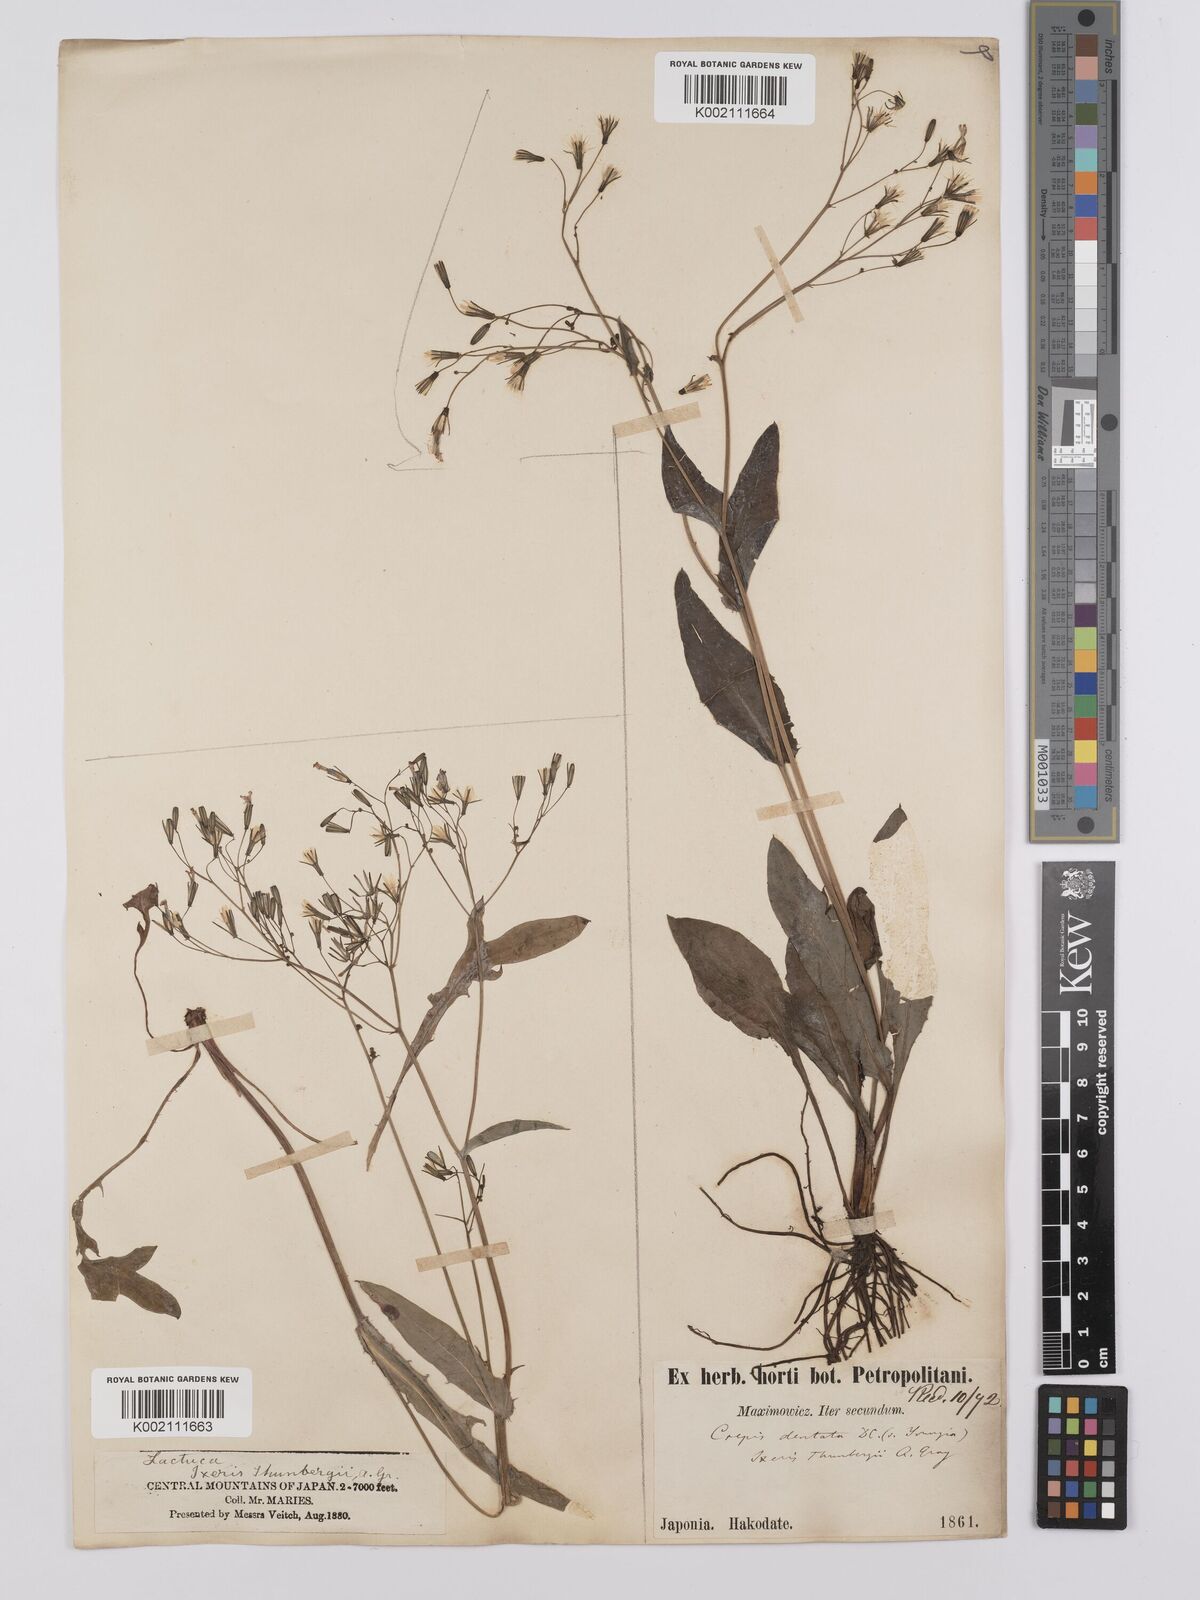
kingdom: Plantae
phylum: Tracheophyta
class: Magnoliopsida
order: Asterales
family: Asteraceae
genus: Ixeridium
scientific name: Ixeridium dentatum
